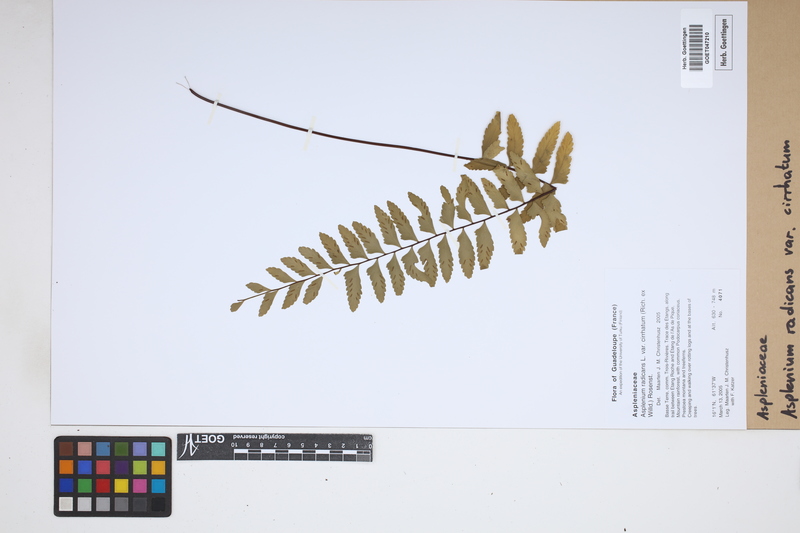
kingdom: Plantae
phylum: Tracheophyta
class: Polypodiopsida
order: Polypodiales
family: Aspleniaceae
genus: Asplenium
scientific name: Asplenium cirrhatum
